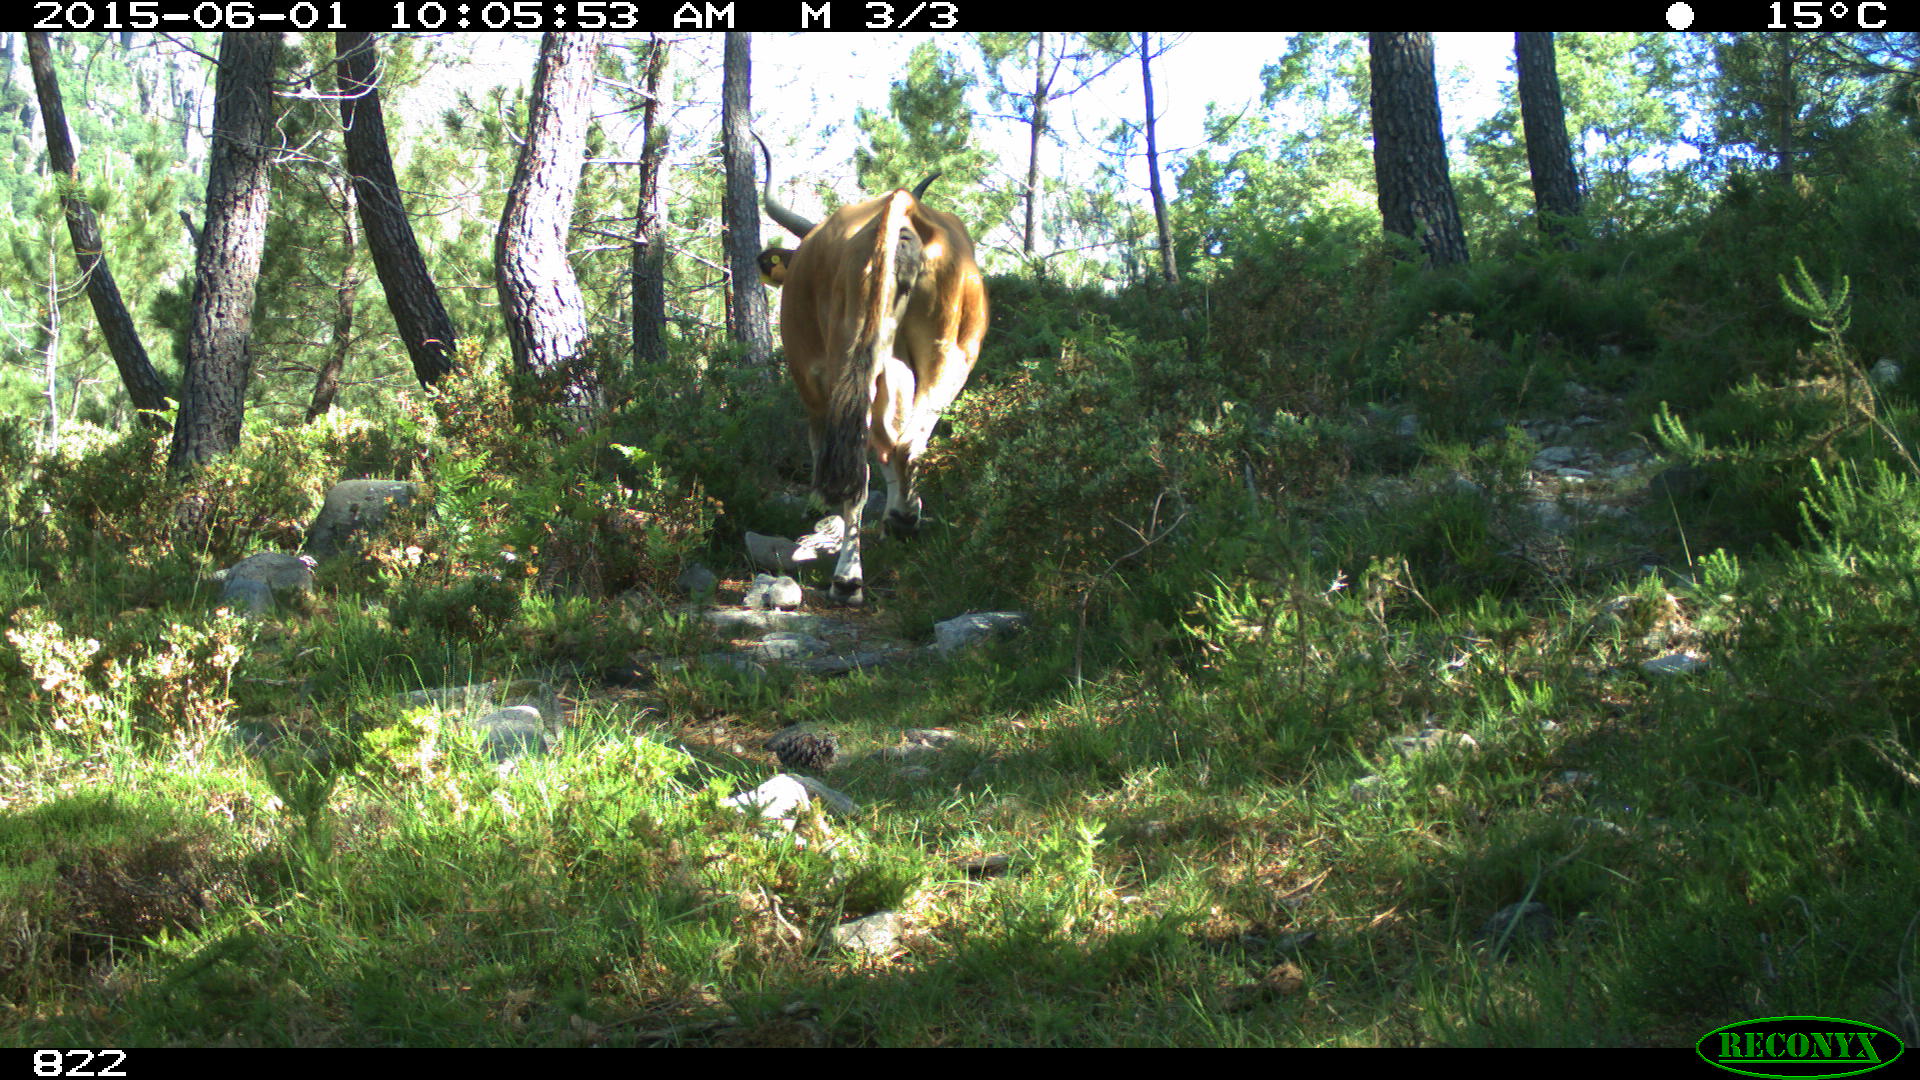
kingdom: Animalia
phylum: Chordata
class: Mammalia
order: Artiodactyla
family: Bovidae
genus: Bos
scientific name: Bos taurus
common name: Domesticated cattle
